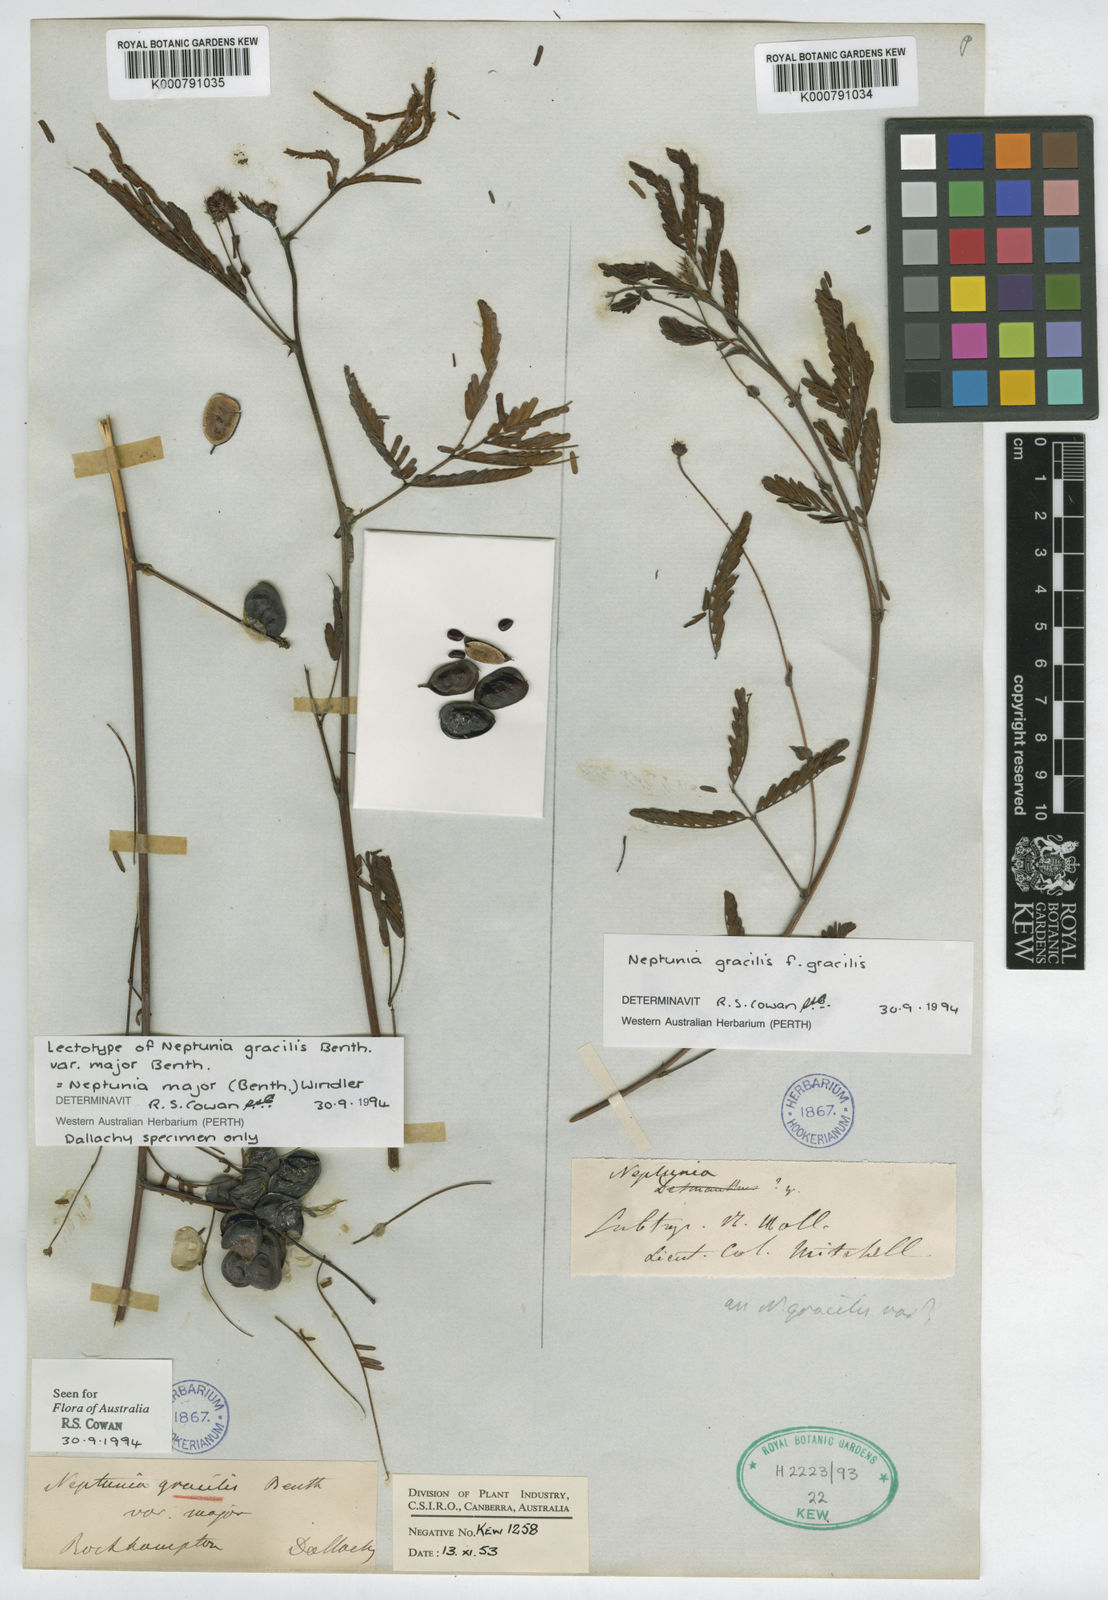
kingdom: Plantae
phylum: Tracheophyta
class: Magnoliopsida
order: Fabales
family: Fabaceae
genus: Neptunia
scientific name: Neptunia gracilis
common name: Sensitive-plant
